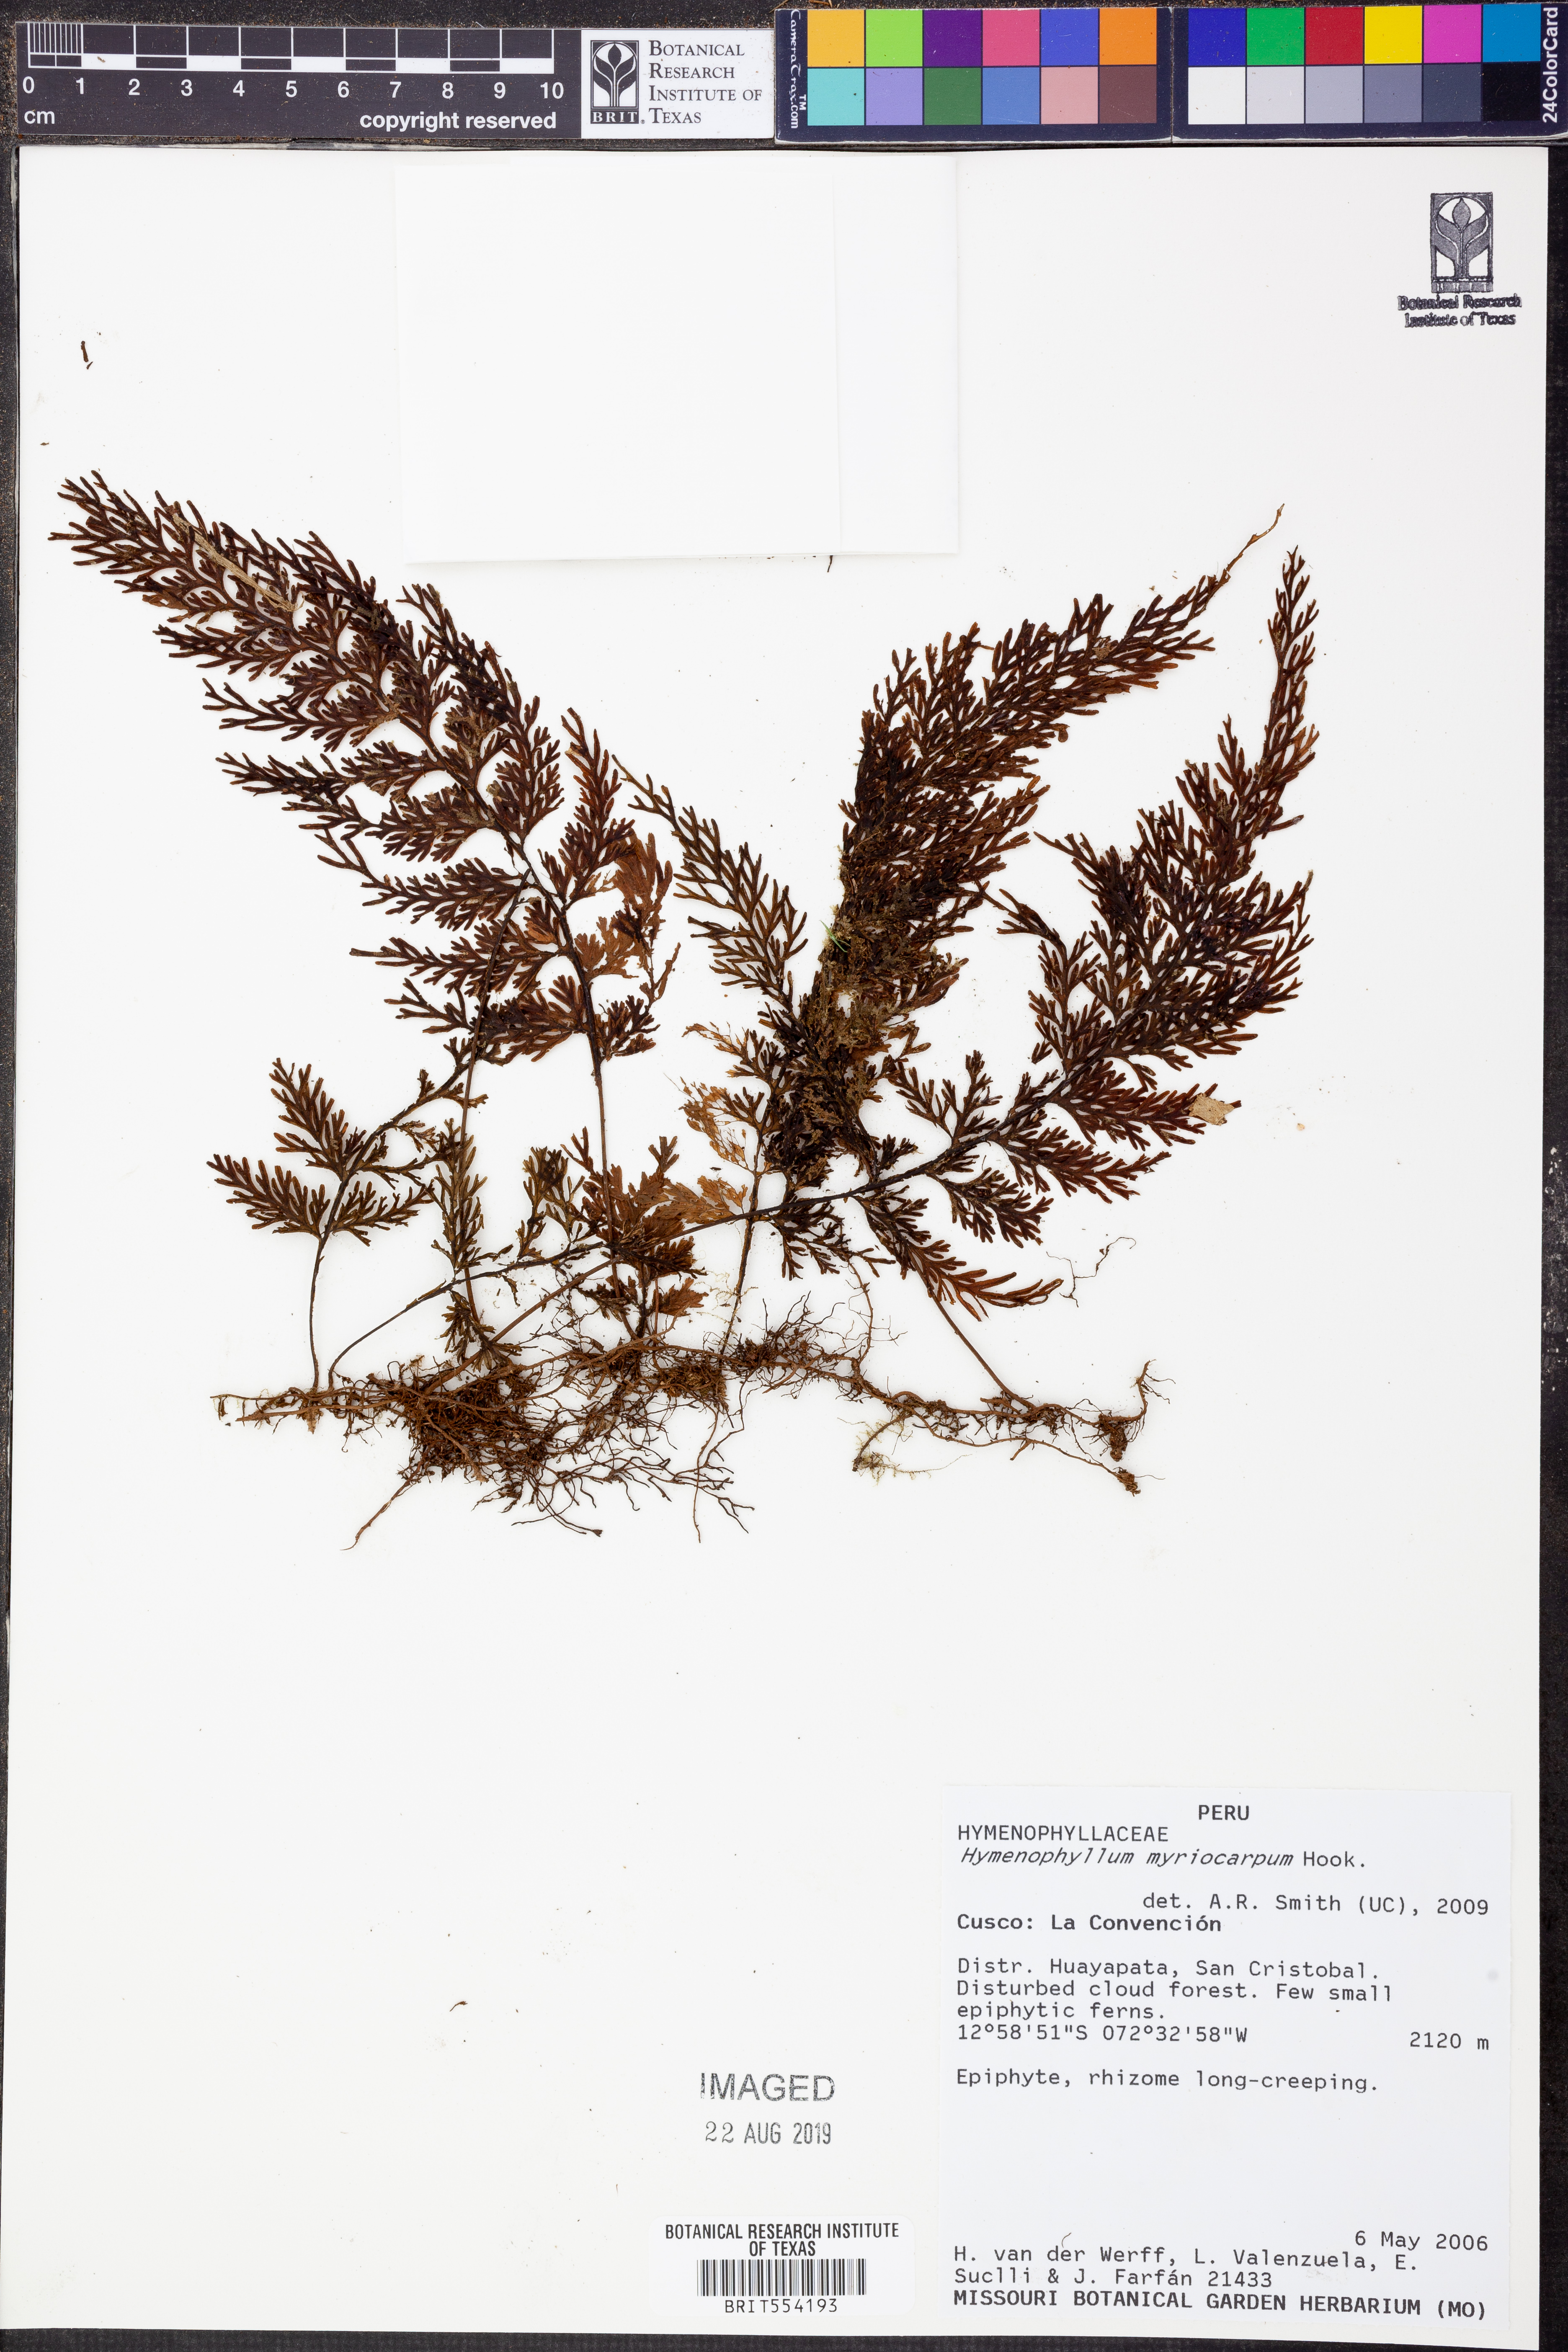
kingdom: Plantae
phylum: Tracheophyta
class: Polypodiopsida
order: Hymenophyllales
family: Hymenophyllaceae
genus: Hymenophyllum
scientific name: Hymenophyllum myriocarpum
